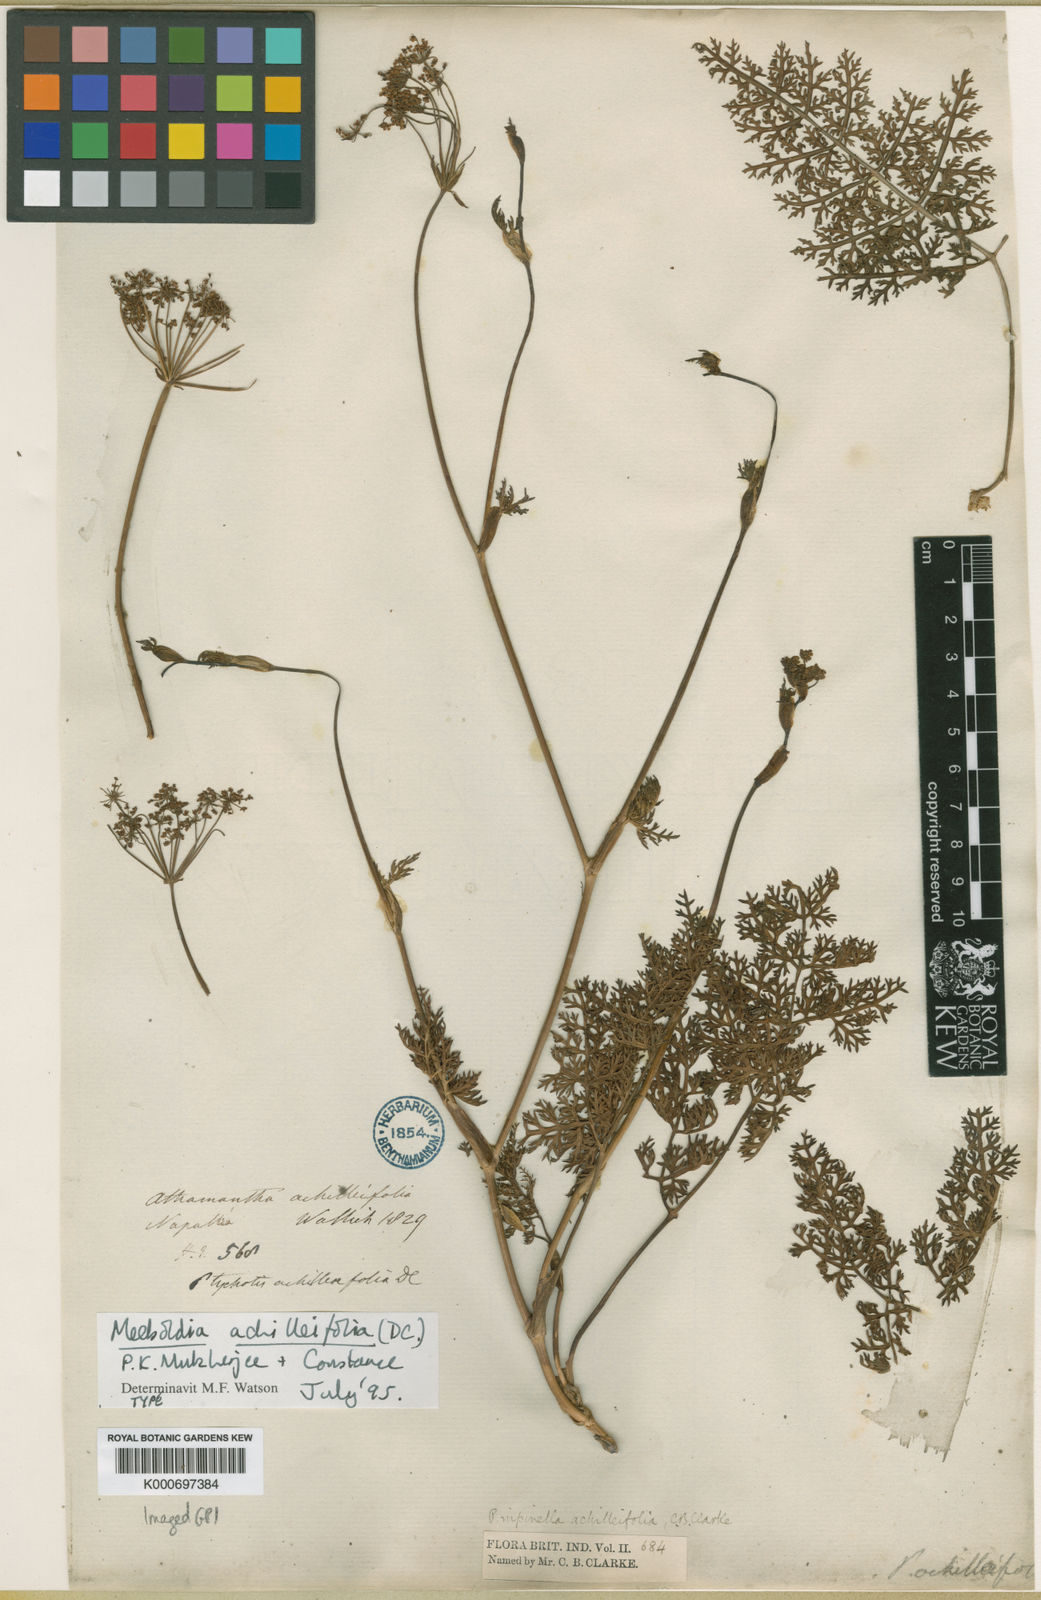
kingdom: Plantae
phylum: Tracheophyta
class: Magnoliopsida
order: Apiales
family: Apiaceae
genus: Meeboldia
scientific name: Meeboldia achilleifolia
